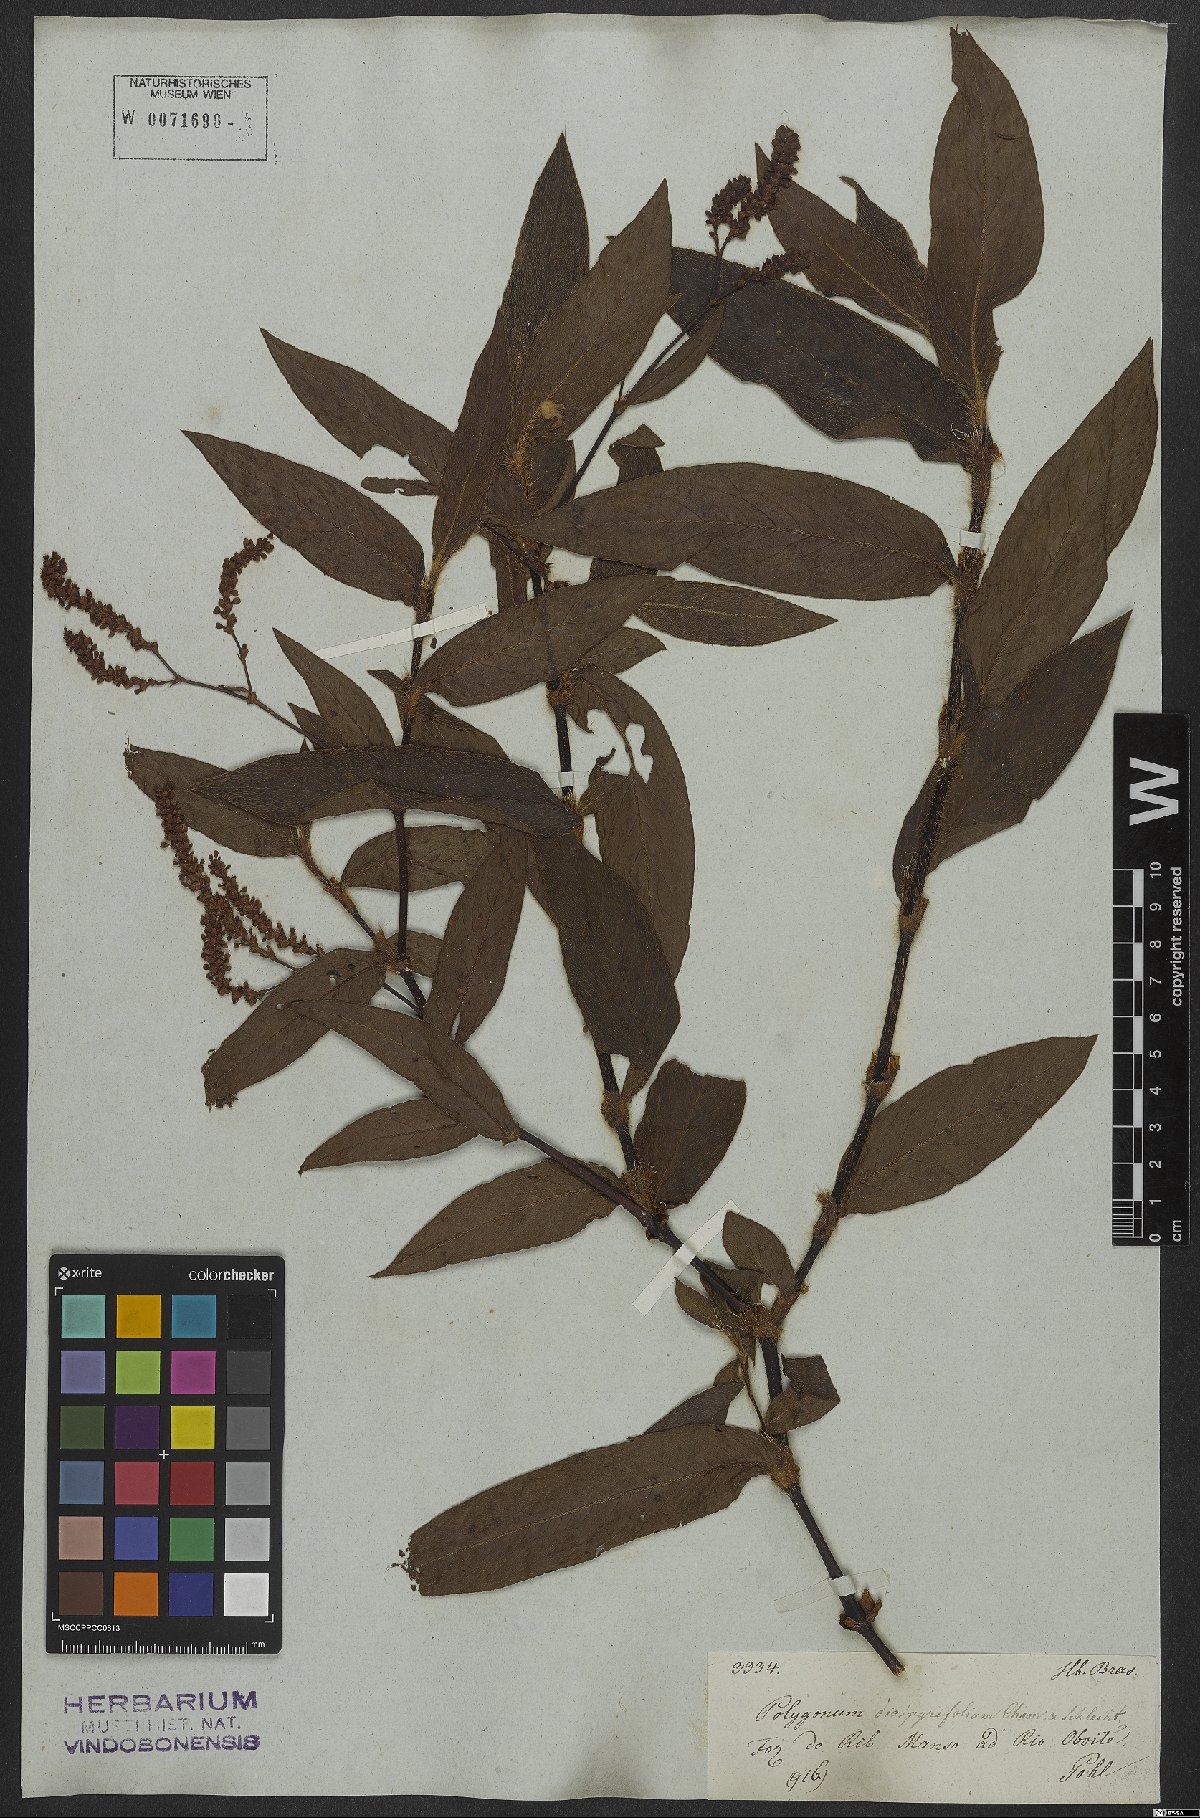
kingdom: Plantae
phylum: Tracheophyta
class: Magnoliopsida
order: Caryophyllales
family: Polygonaceae
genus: Persicaria
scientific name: Persicaria diospyrifolia
